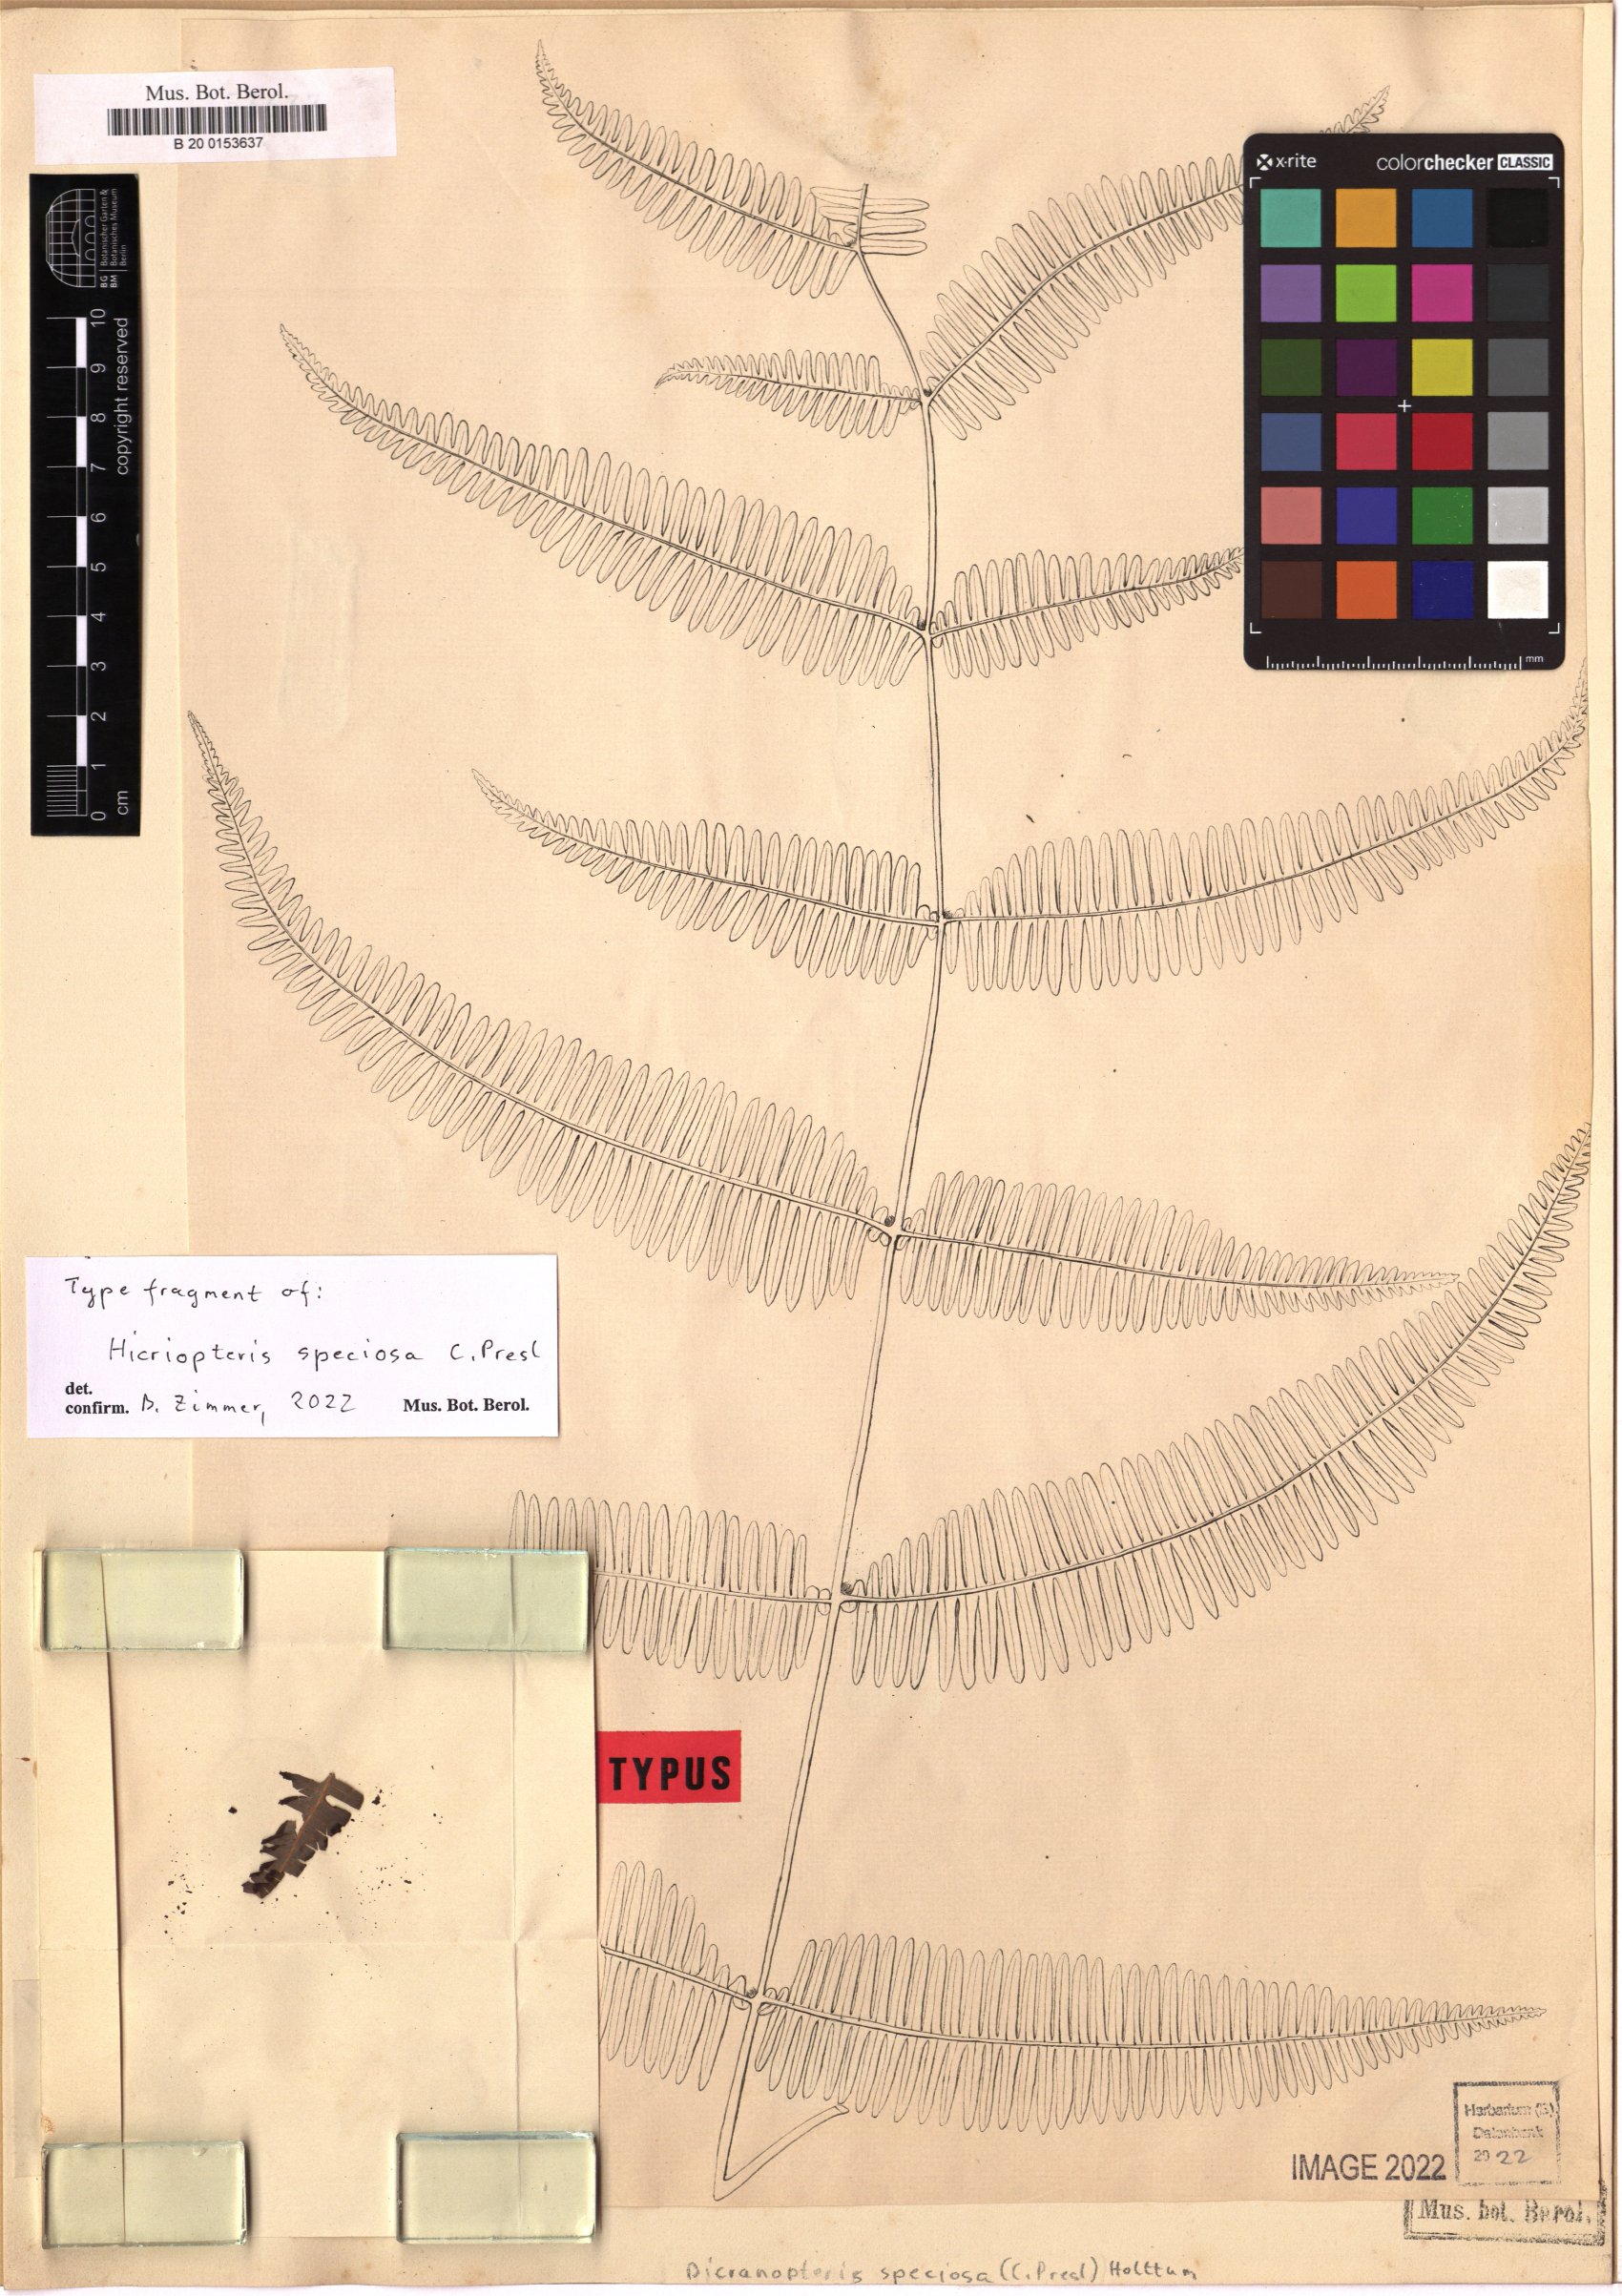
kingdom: Plantae
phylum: Tracheophyta
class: Polypodiopsida
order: Gleicheniales
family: Gleicheniaceae
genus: Dicranopteris
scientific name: Dicranopteris speciosa
